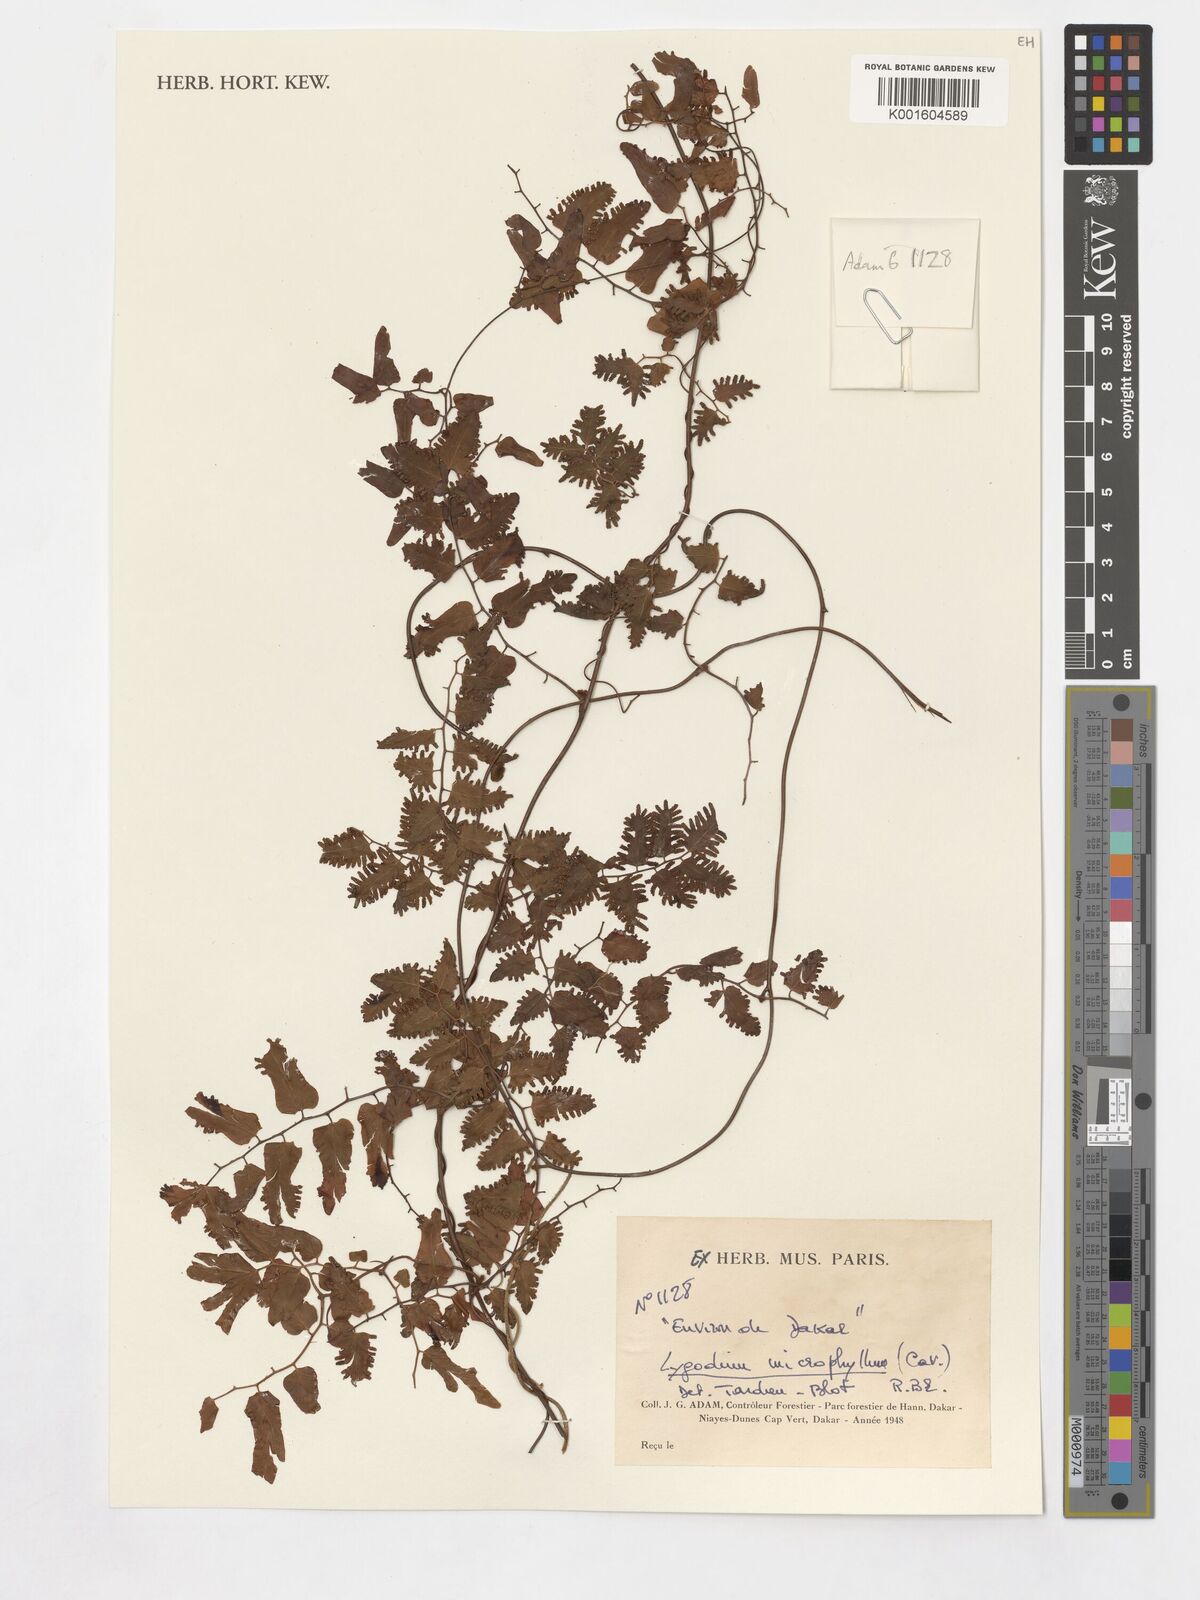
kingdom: Plantae
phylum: Tracheophyta
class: Polypodiopsida
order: Schizaeales
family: Lygodiaceae
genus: Lygodium
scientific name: Lygodium microphyllum
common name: Small-leaf climbing fern
